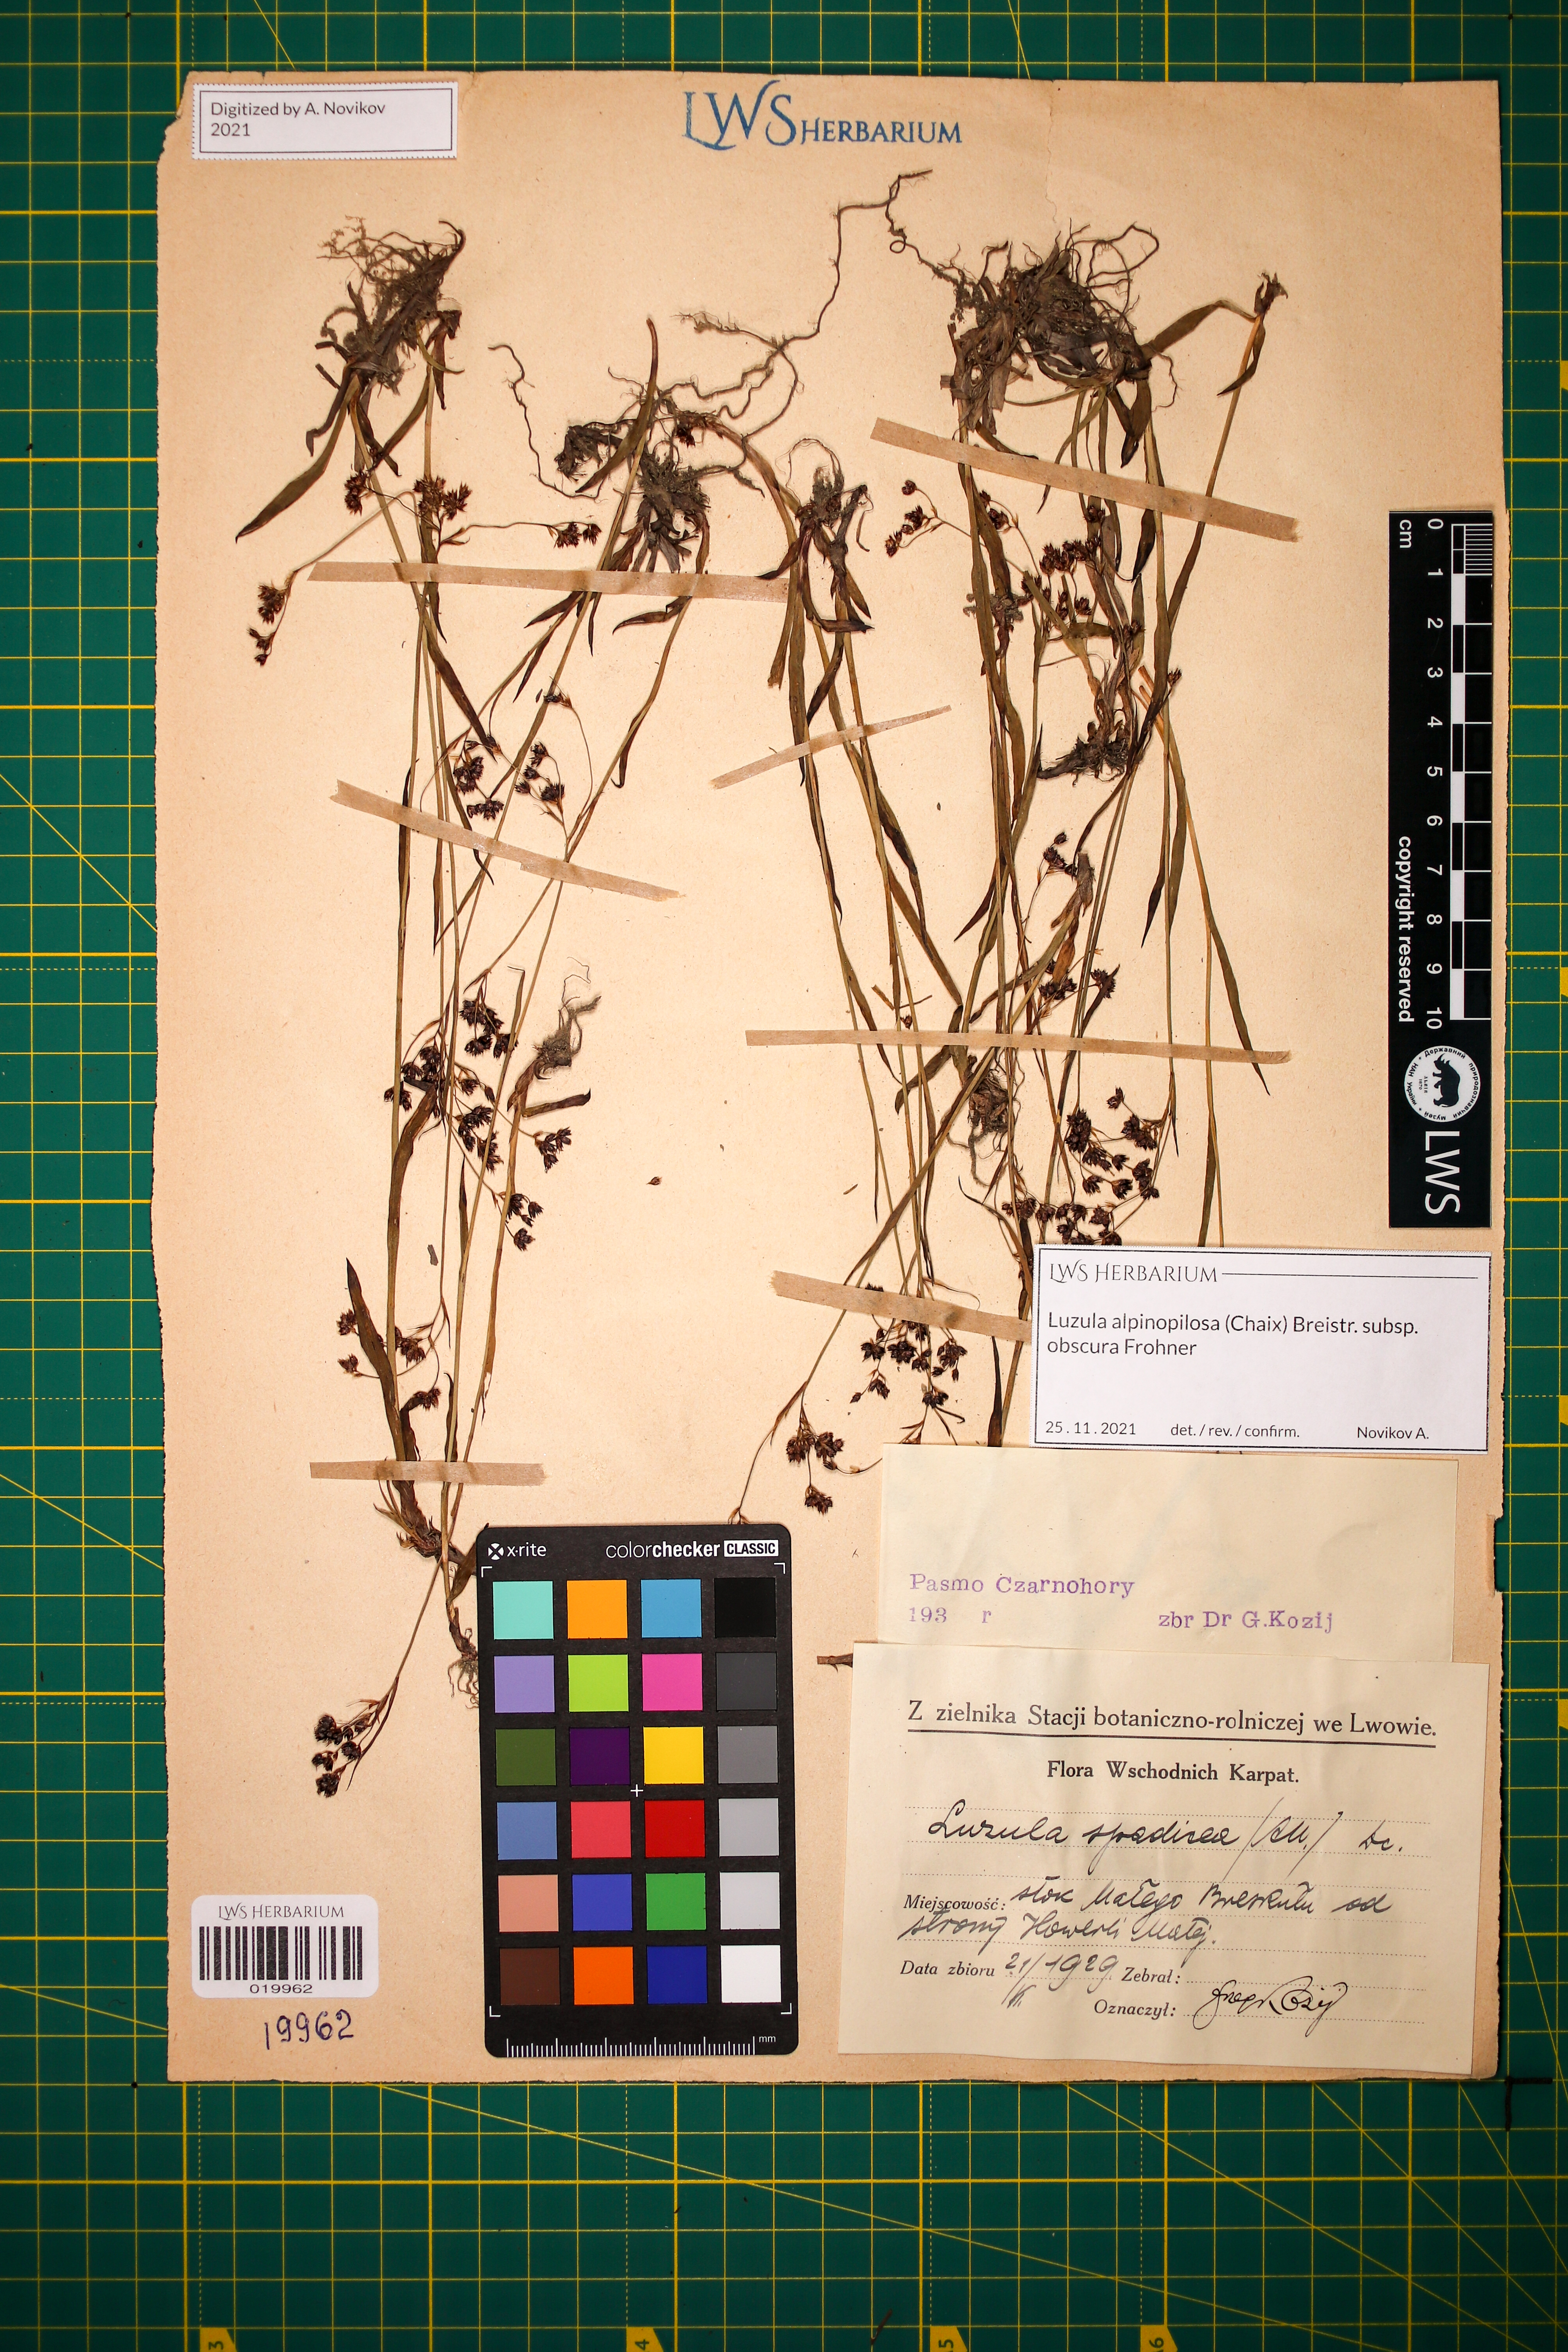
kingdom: Plantae
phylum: Tracheophyta
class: Liliopsida
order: Poales
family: Juncaceae
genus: Luzula
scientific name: Luzula alpinopilosa
